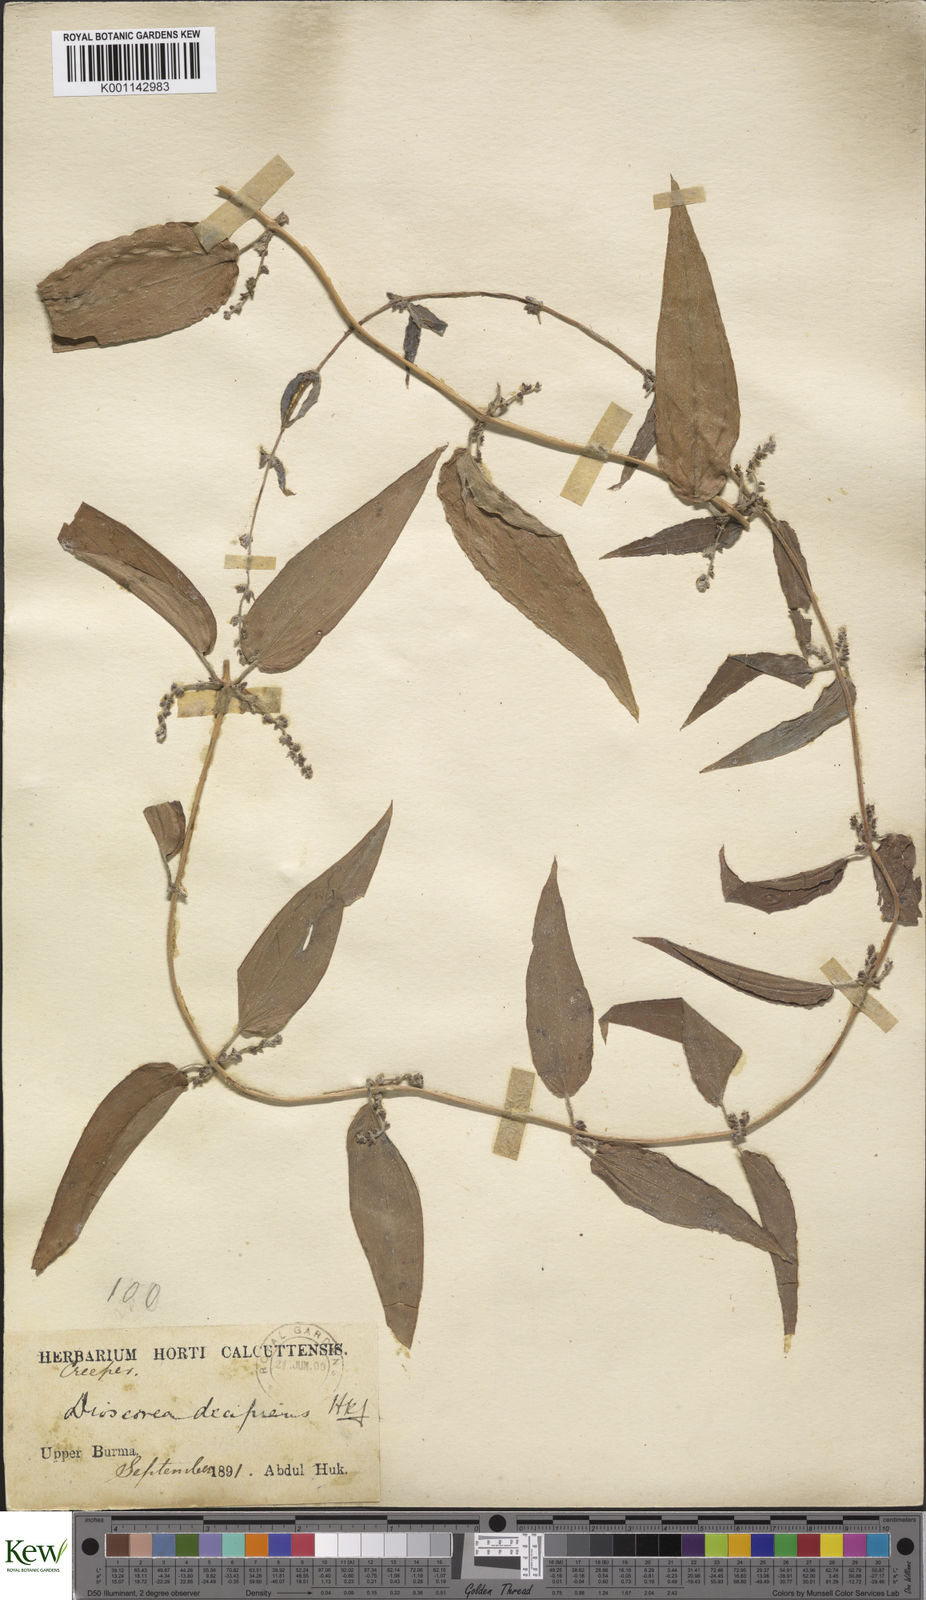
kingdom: Plantae
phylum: Tracheophyta
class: Liliopsida
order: Dioscoreales
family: Dioscoreaceae
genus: Dioscorea
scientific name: Dioscorea decipiens
